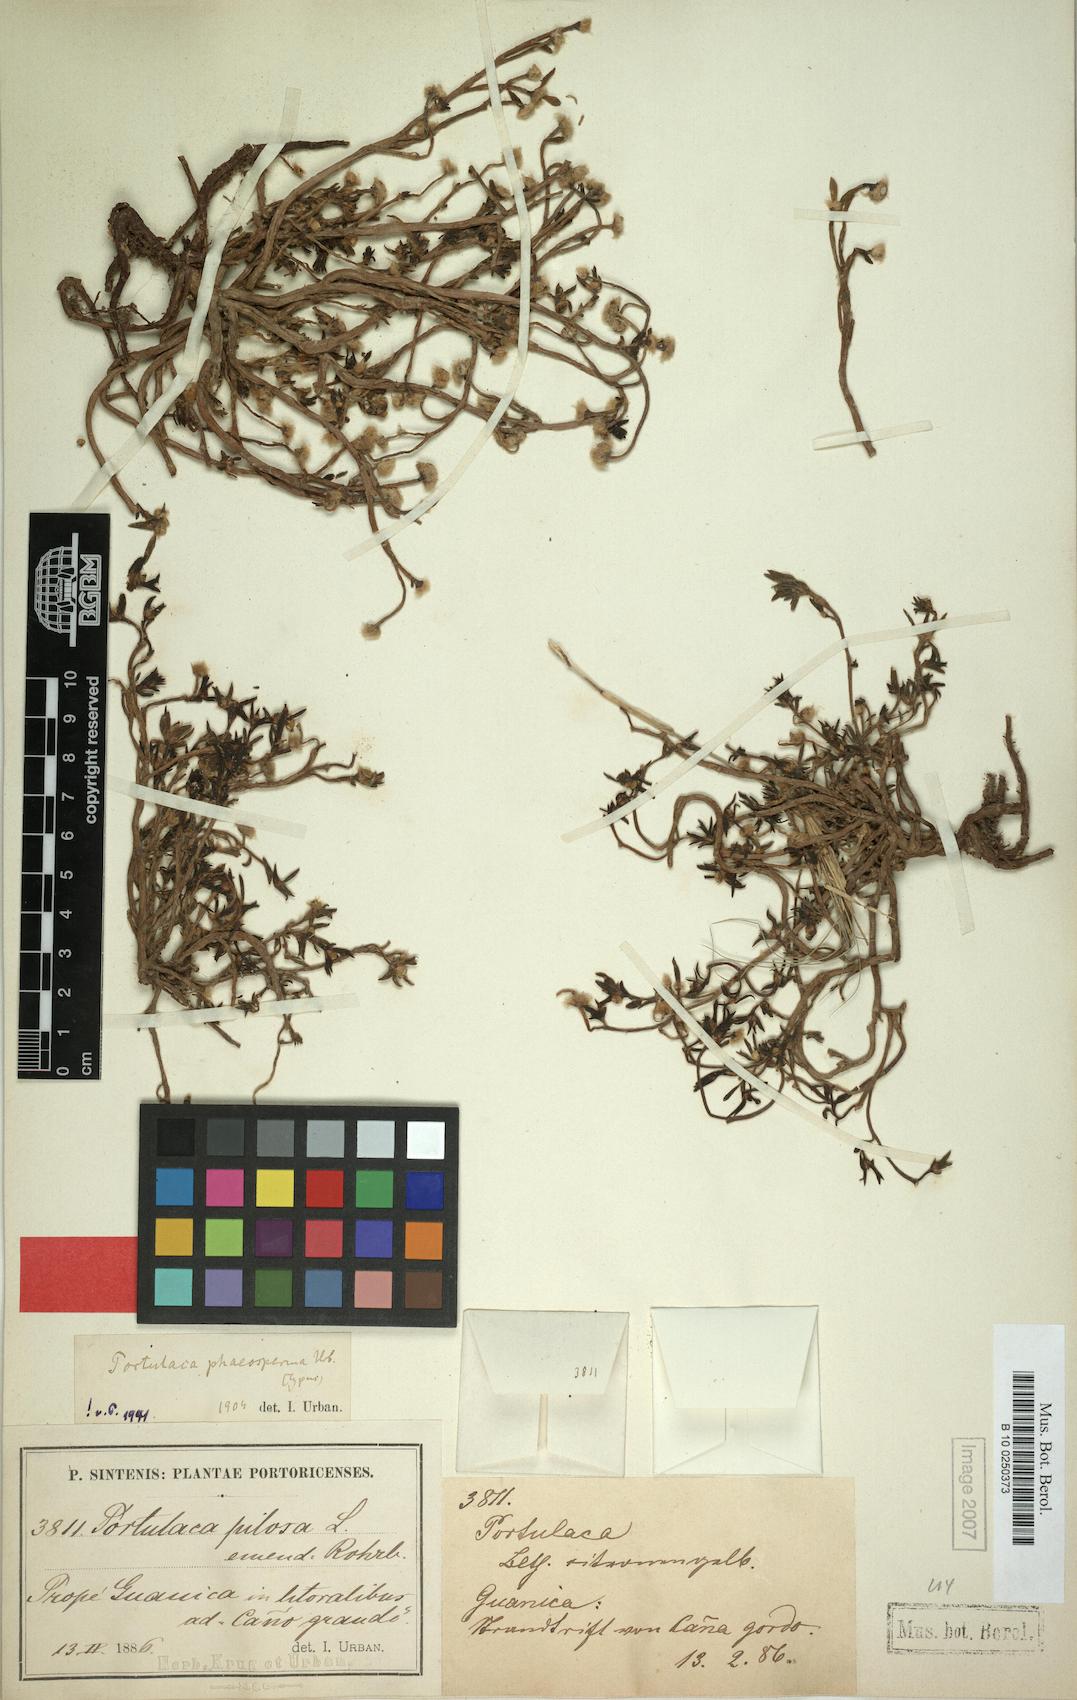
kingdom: Plantae
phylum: Tracheophyta
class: Magnoliopsida
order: Caryophyllales
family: Portulacaceae
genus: Portulaca
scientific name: Portulaca rubricaulis
